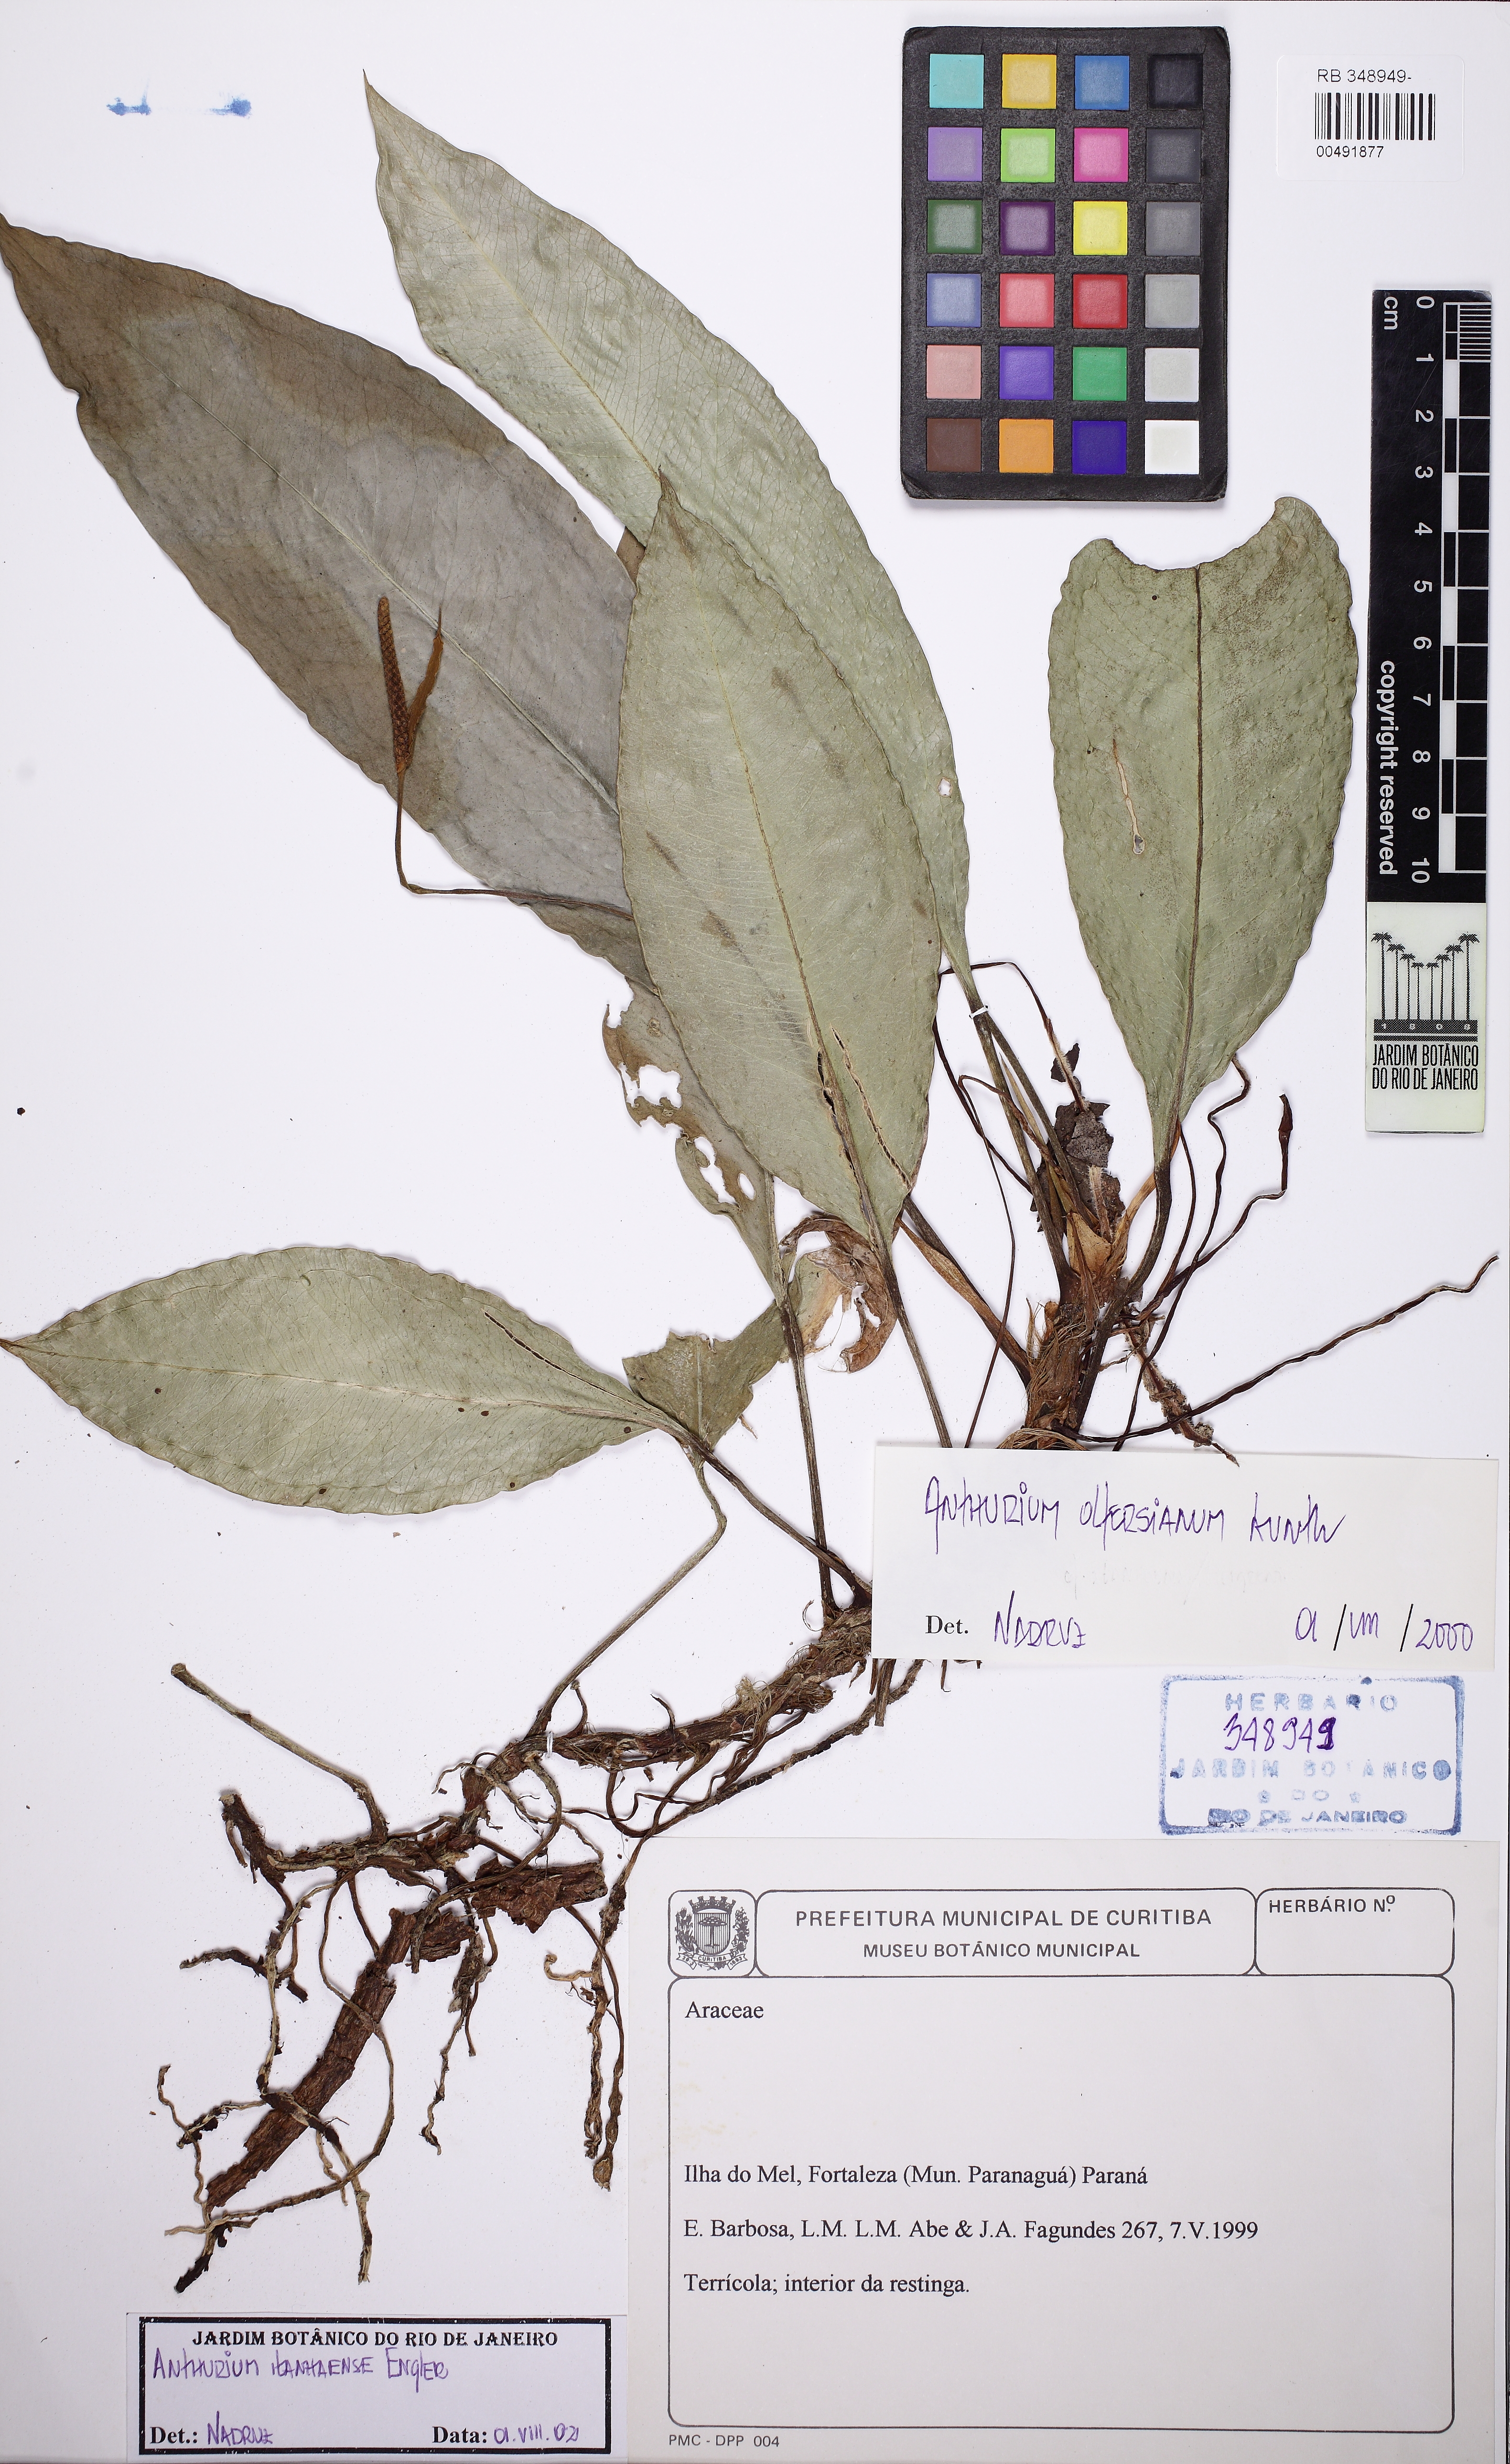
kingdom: Plantae
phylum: Tracheophyta
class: Liliopsida
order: Alismatales
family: Araceae
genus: Anthurium
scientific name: Anthurium loefgrenii
